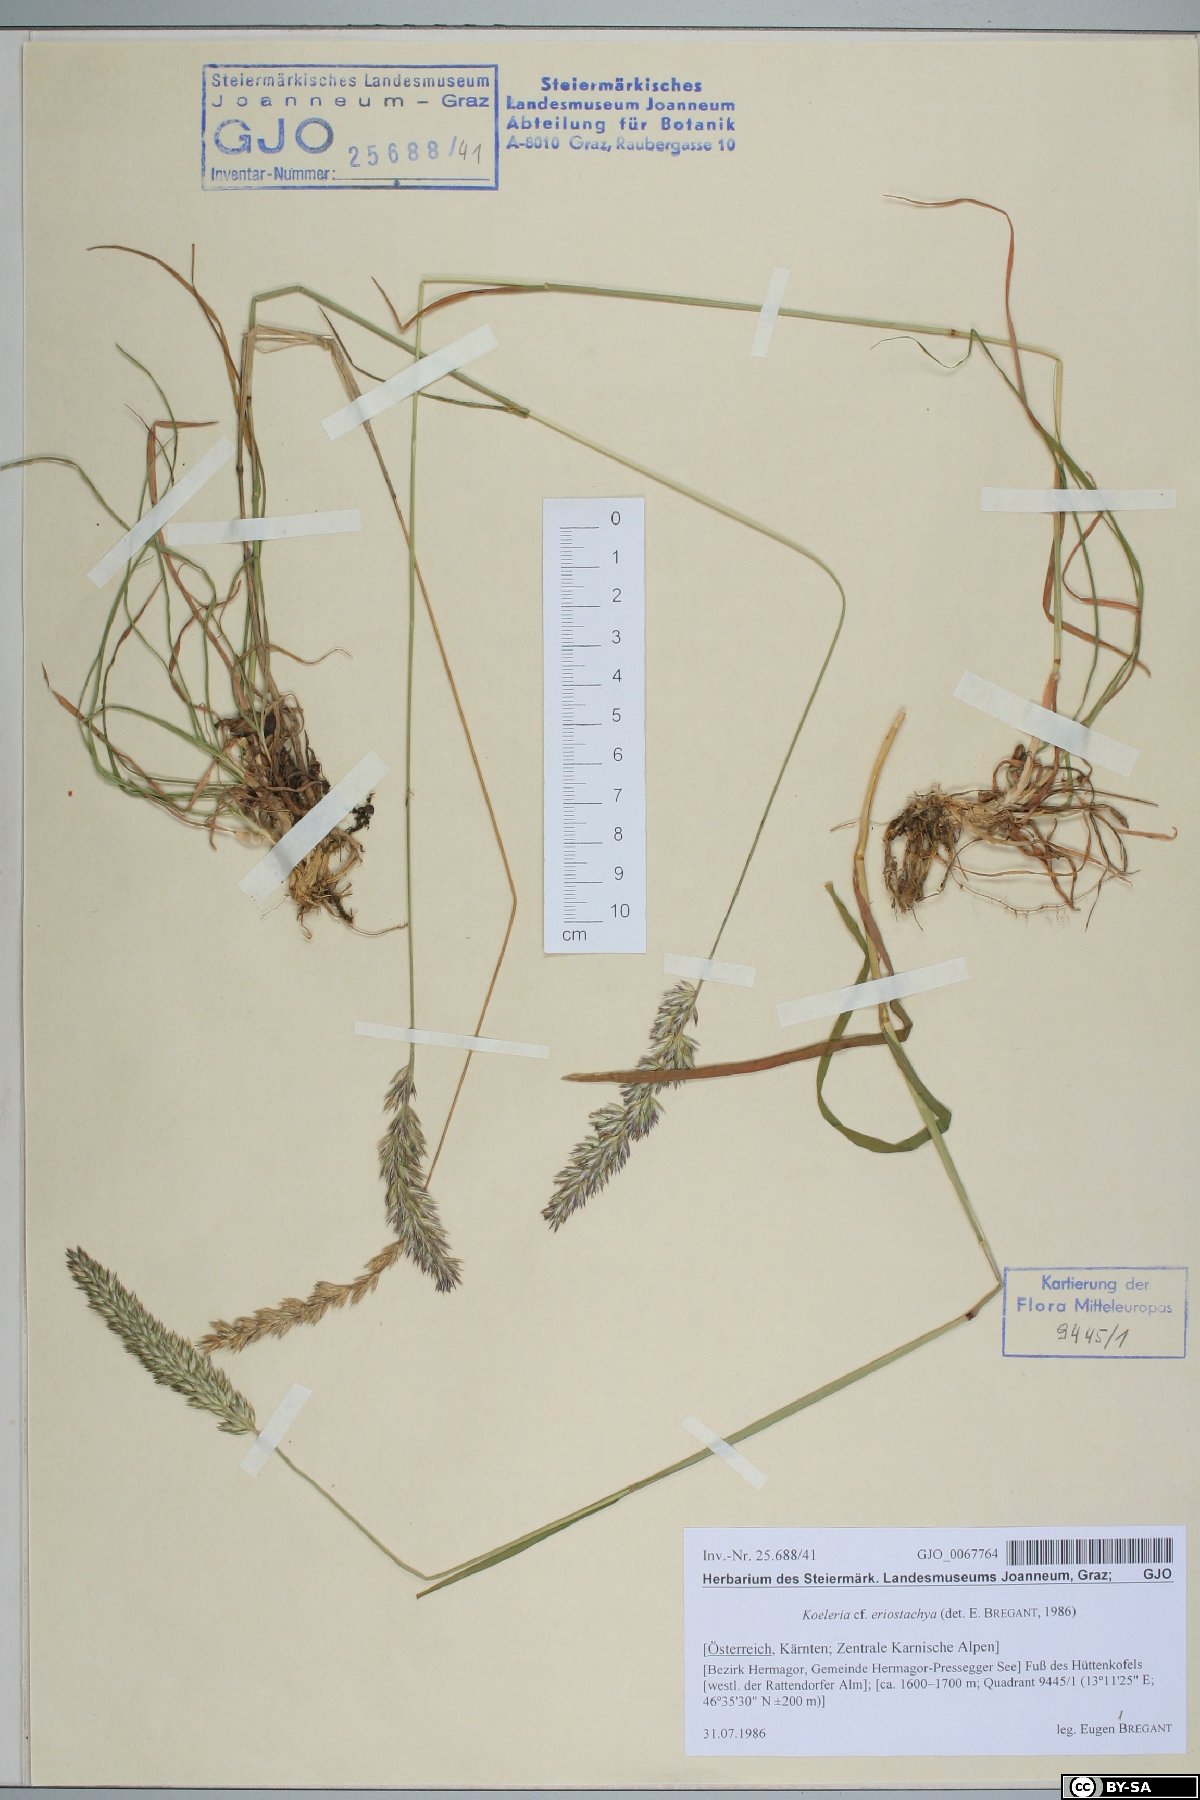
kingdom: Plantae
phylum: Tracheophyta
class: Liliopsida
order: Poales
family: Poaceae
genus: Koeleria
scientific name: Koeleria eriostachya
